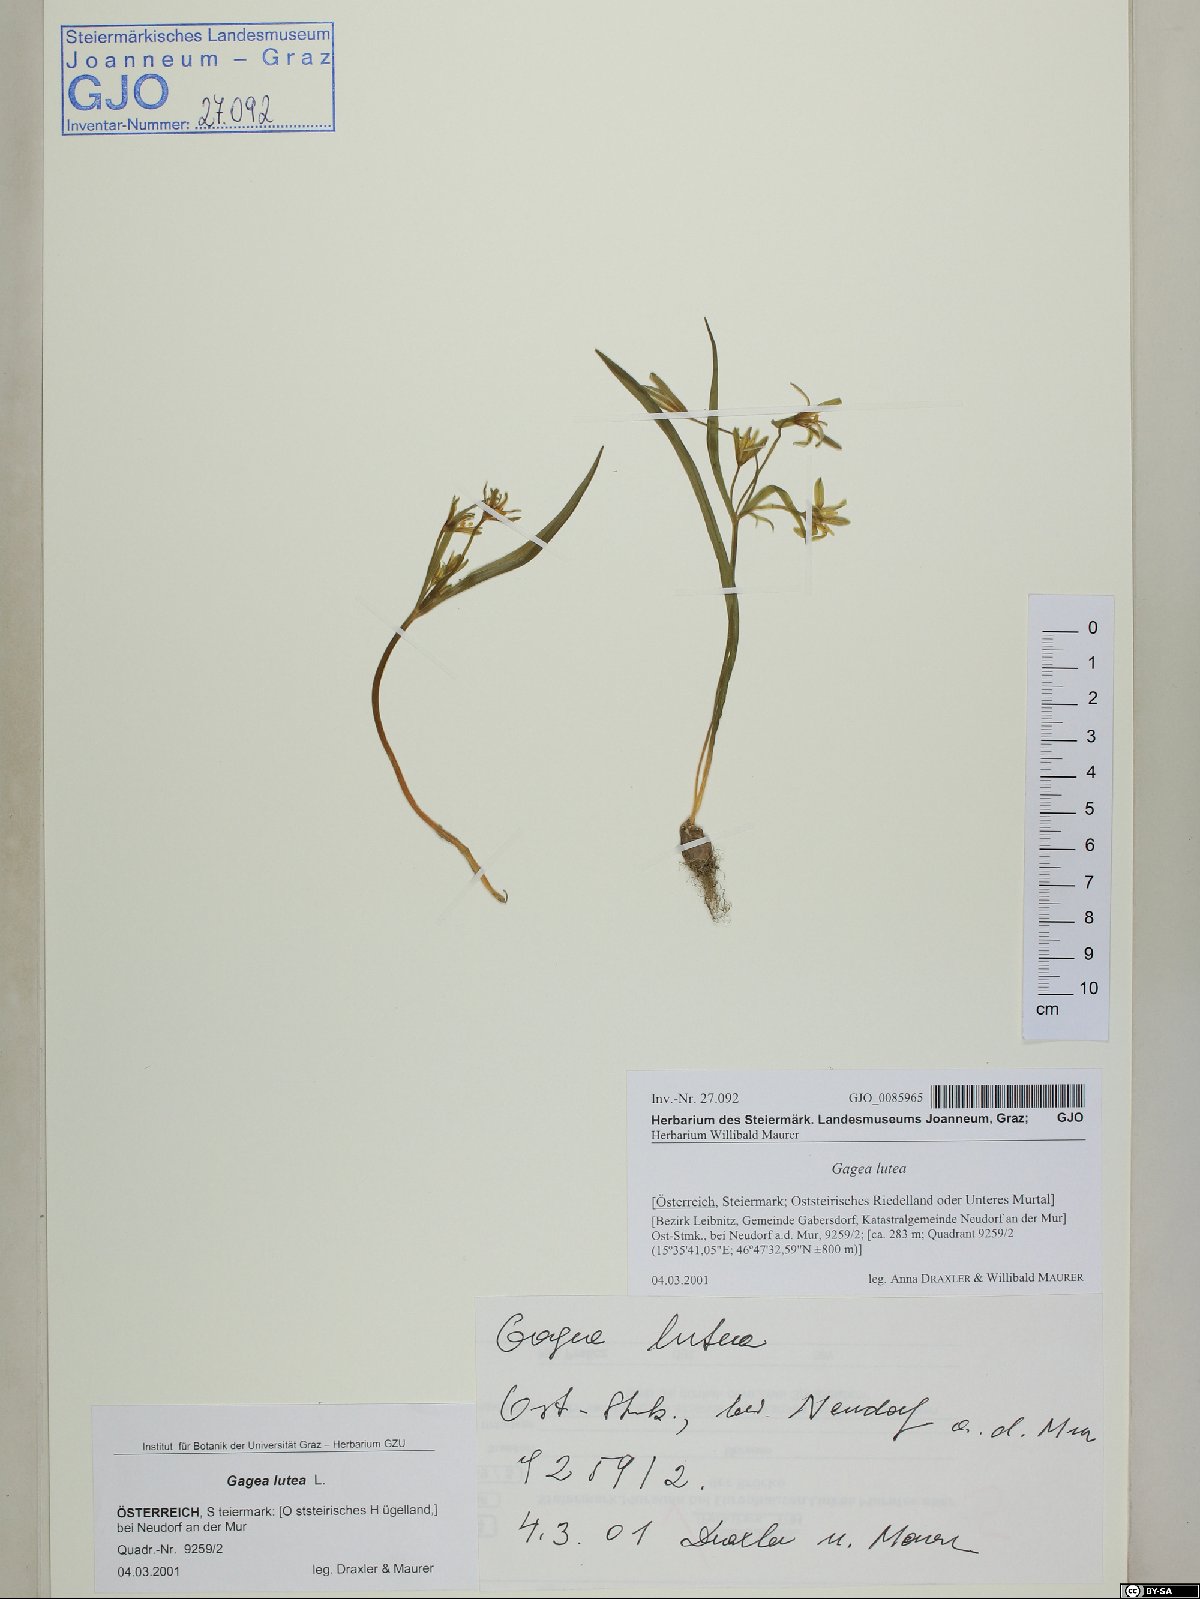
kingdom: Plantae
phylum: Tracheophyta
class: Liliopsida
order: Liliales
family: Liliaceae
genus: Gagea
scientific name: Gagea lutea
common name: Yellow star-of-bethlehem
